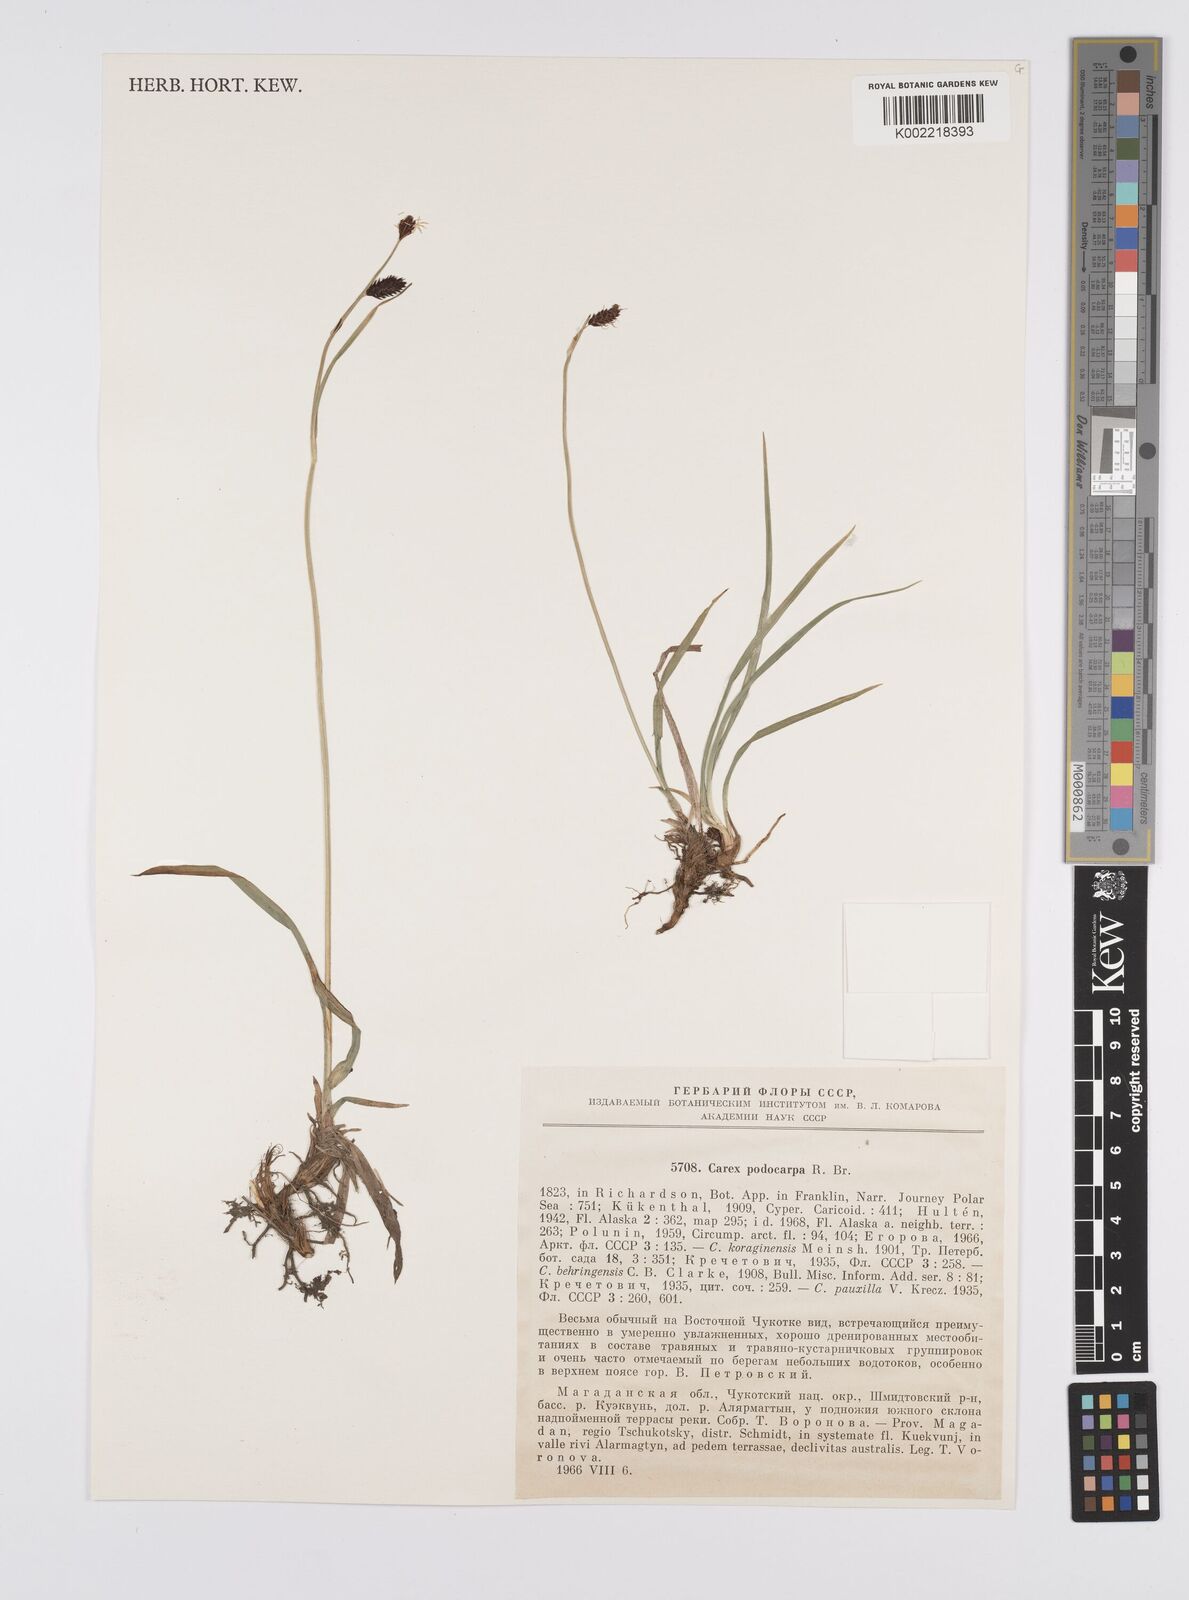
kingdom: Plantae
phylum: Tracheophyta
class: Liliopsida
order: Poales
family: Cyperaceae
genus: Carex
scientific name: Carex podocarpa
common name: Alpine sedge
